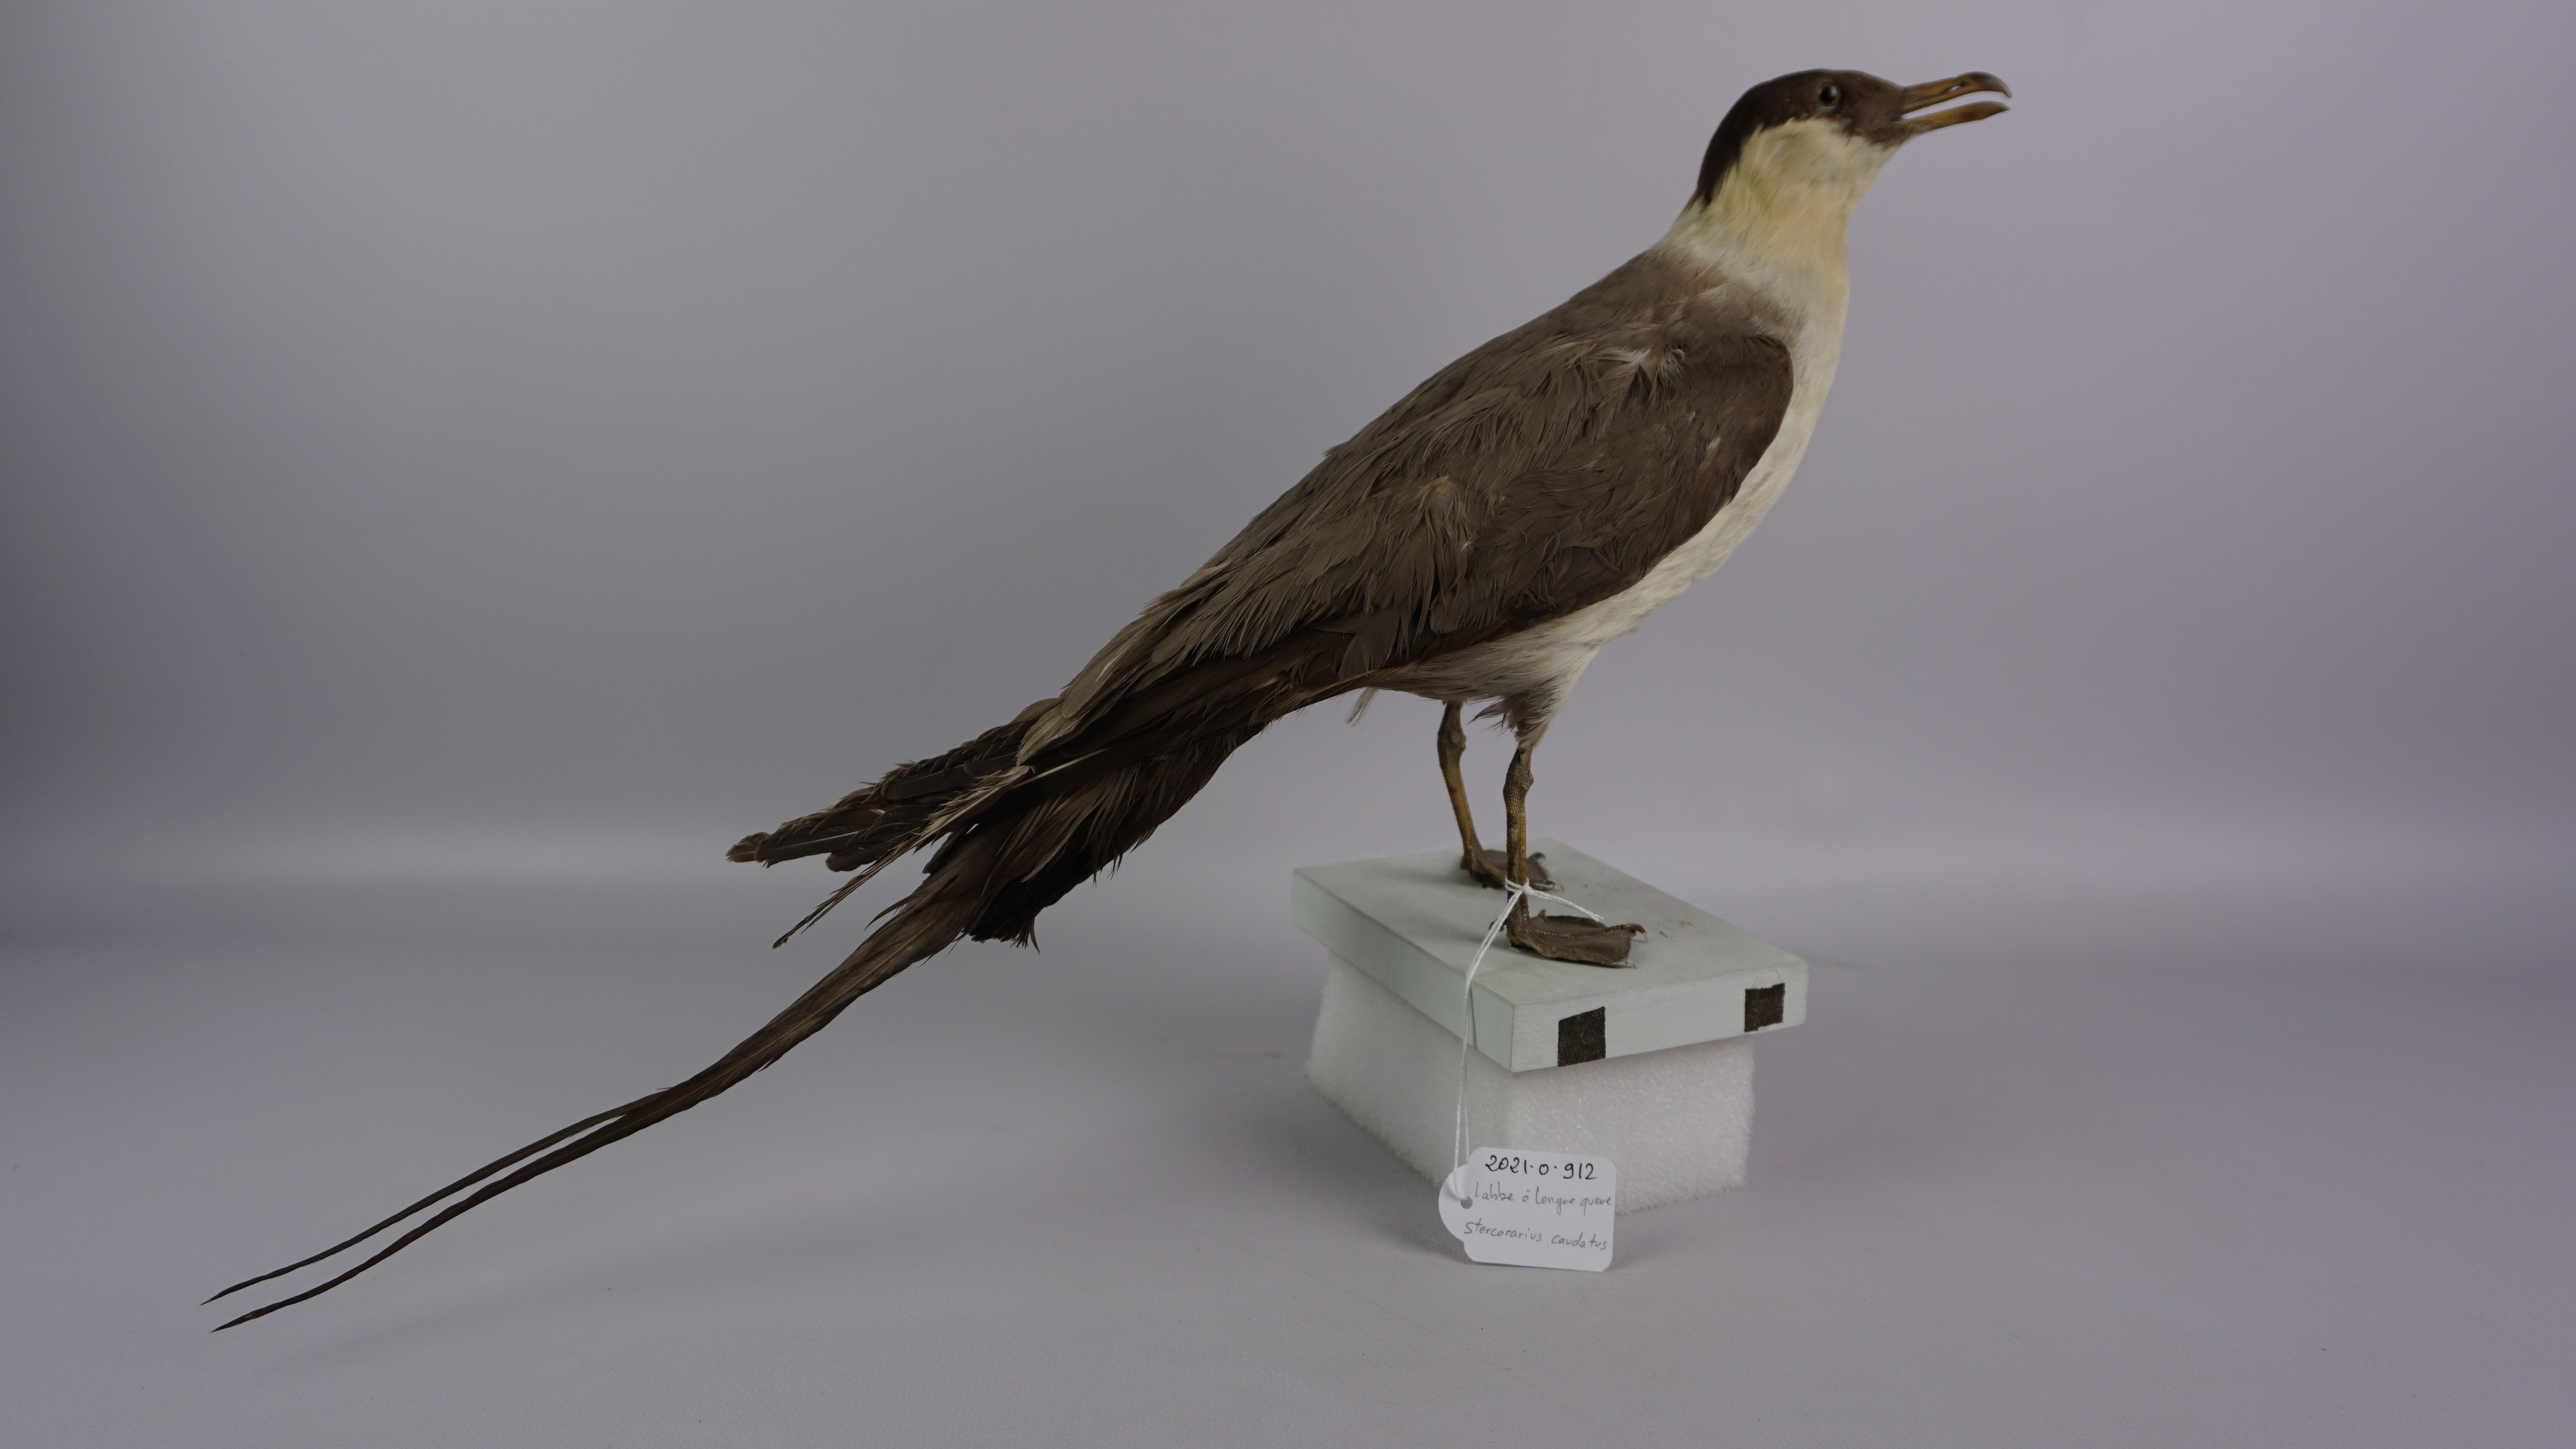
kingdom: Animalia
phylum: Chordata
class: Aves
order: Charadriiformes
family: Stercorariidae
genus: Stercorarius
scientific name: Stercorarius longicaudus
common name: Long-tailed jaeger
